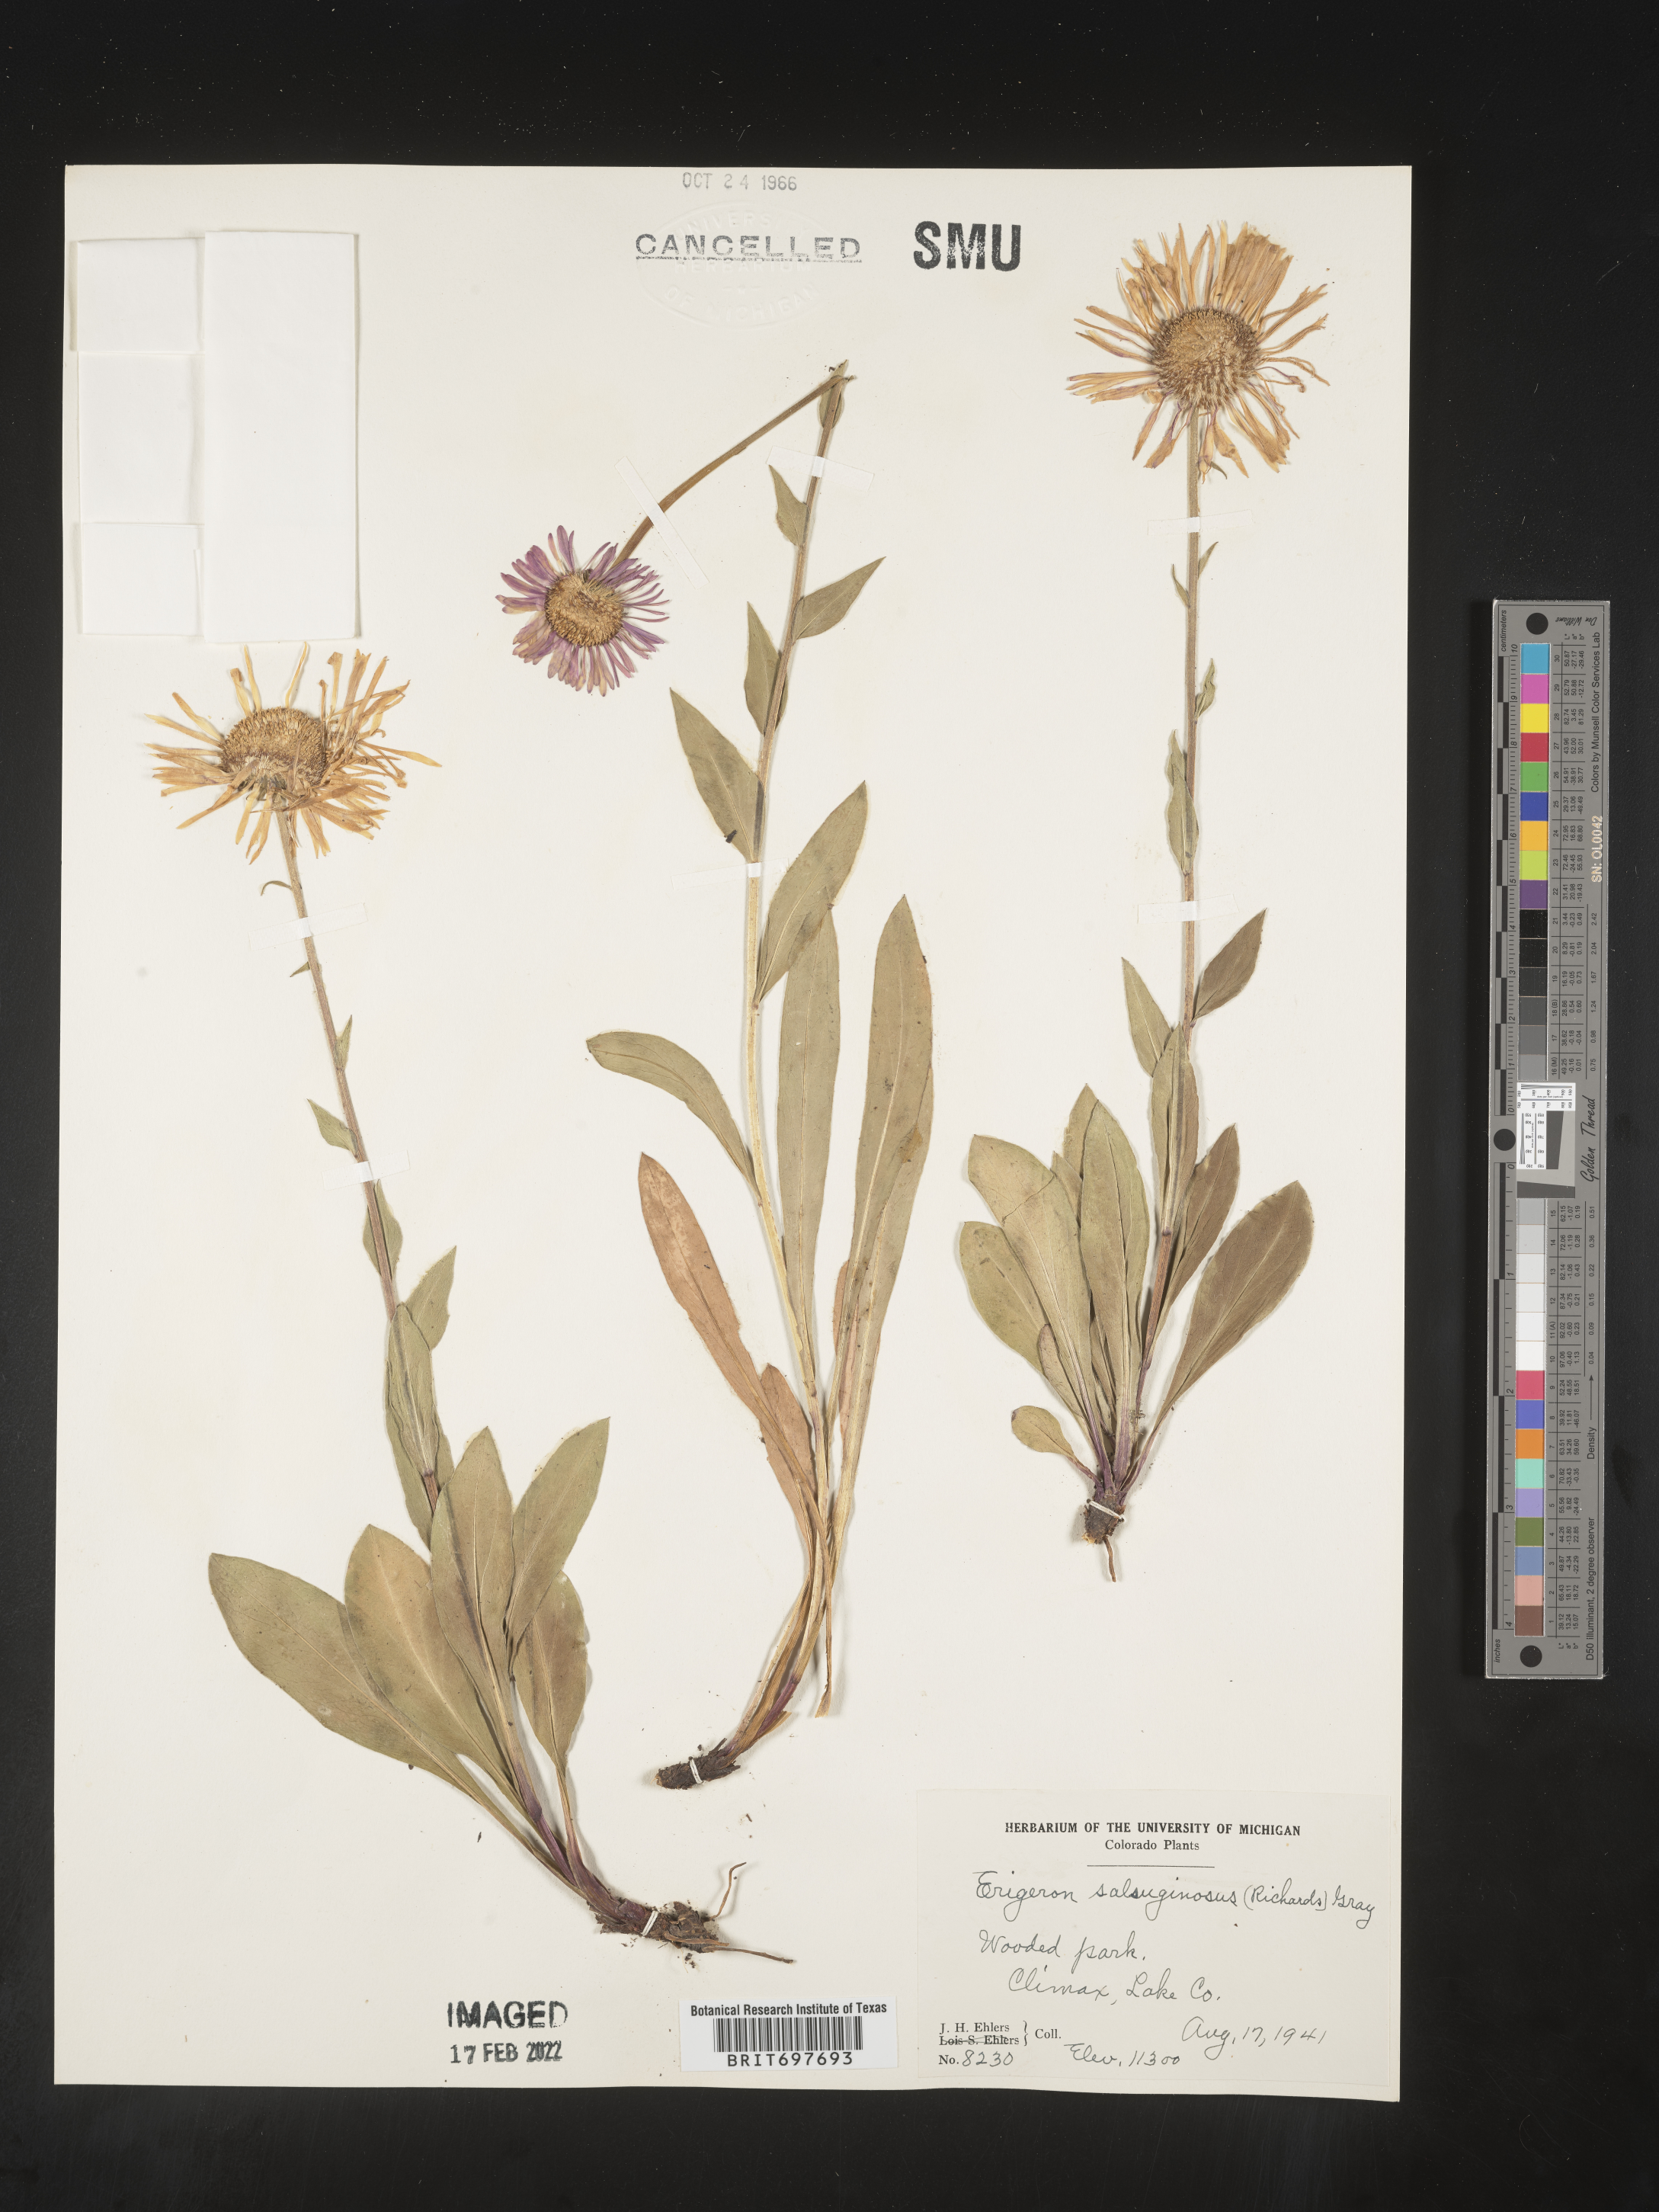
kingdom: Plantae
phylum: Tracheophyta
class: Magnoliopsida
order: Asterales
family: Asteraceae
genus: Erigeron
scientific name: Erigeron glacialis
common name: Subalpine fleabane
